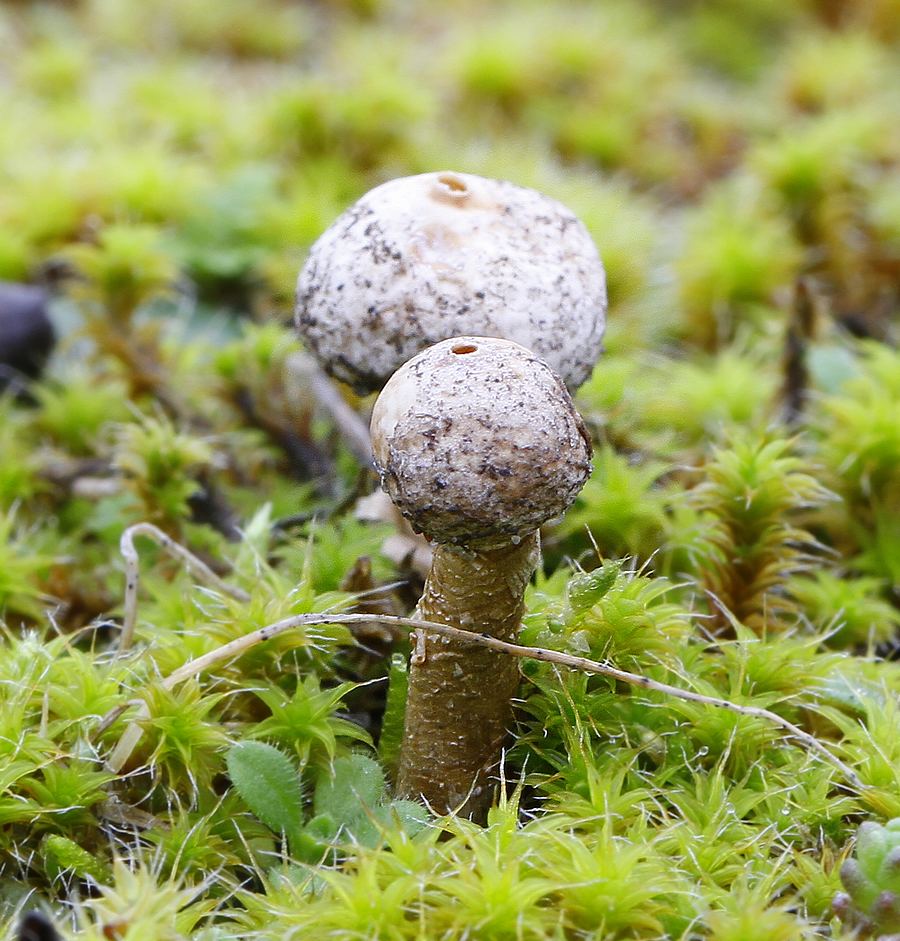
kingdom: Fungi
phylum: Basidiomycota
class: Agaricomycetes
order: Agaricales
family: Agaricaceae
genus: Tulostoma
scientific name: Tulostoma brumale
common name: vinter-stilkbovist
